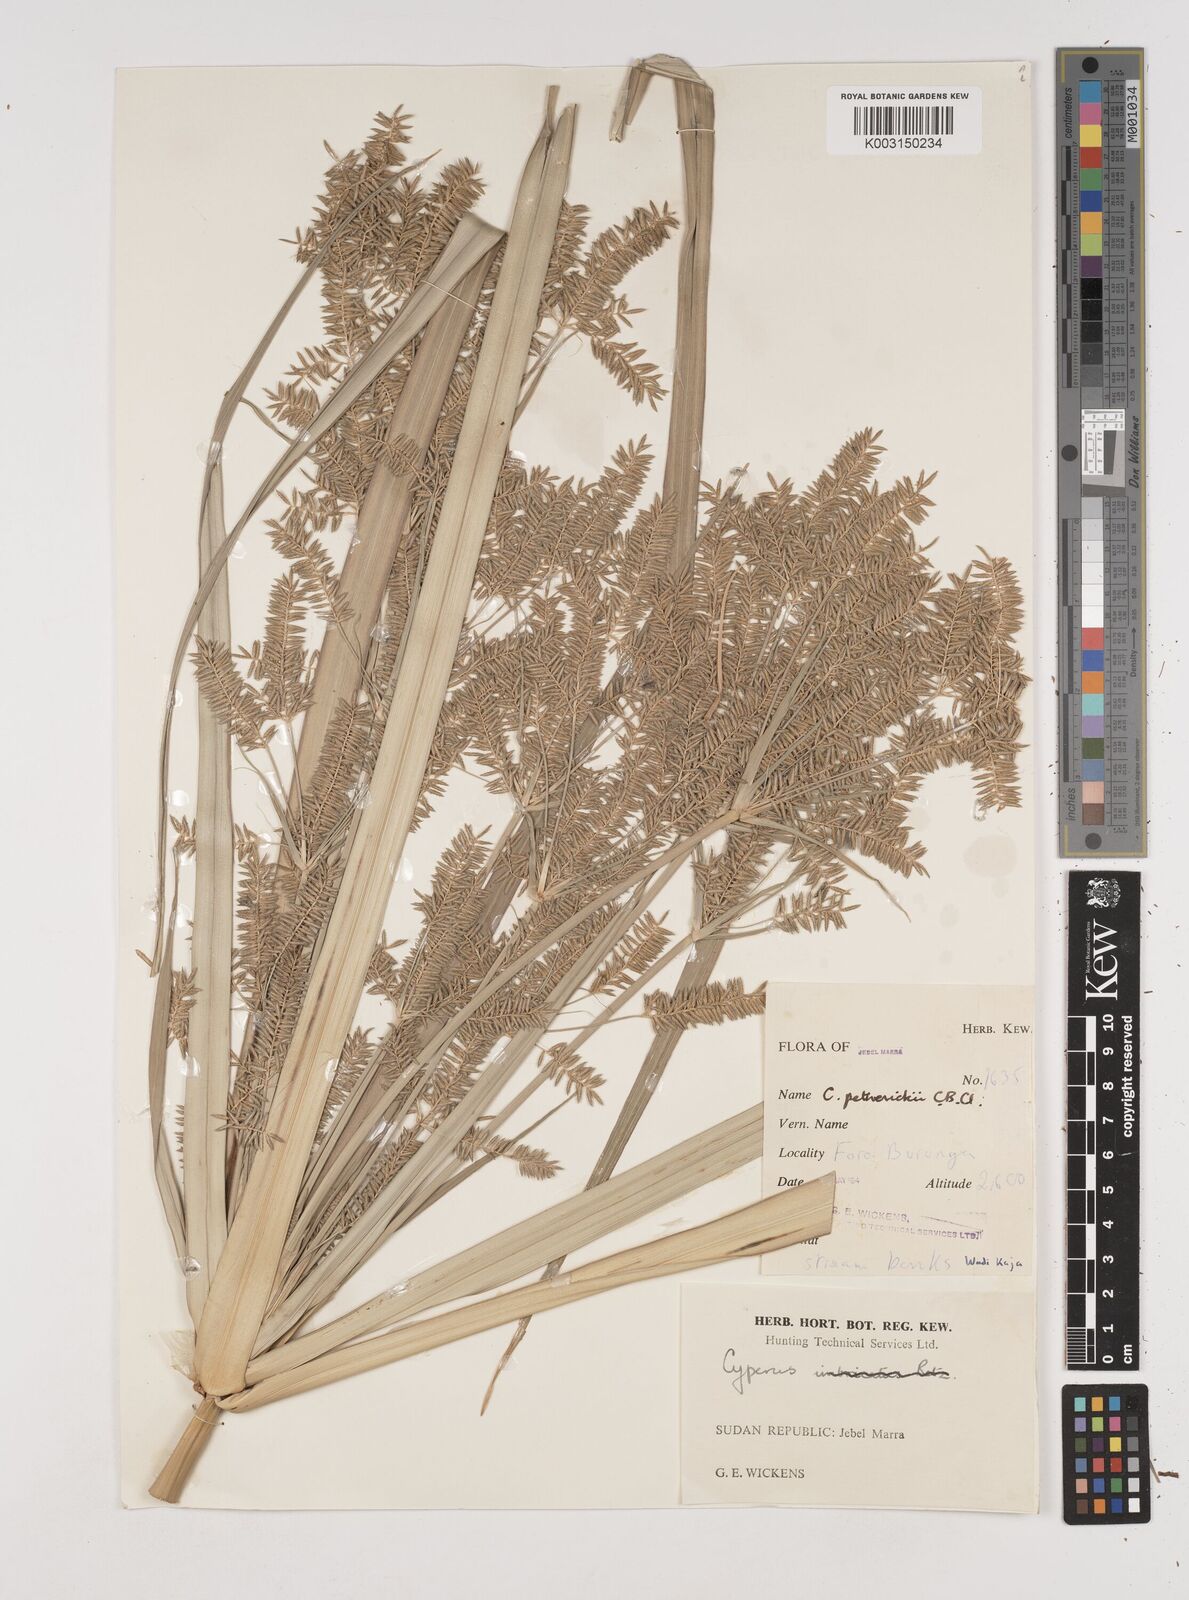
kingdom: Plantae
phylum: Tracheophyta
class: Liliopsida
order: Poales
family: Cyperaceae
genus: Cyperus
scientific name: Cyperus dives
